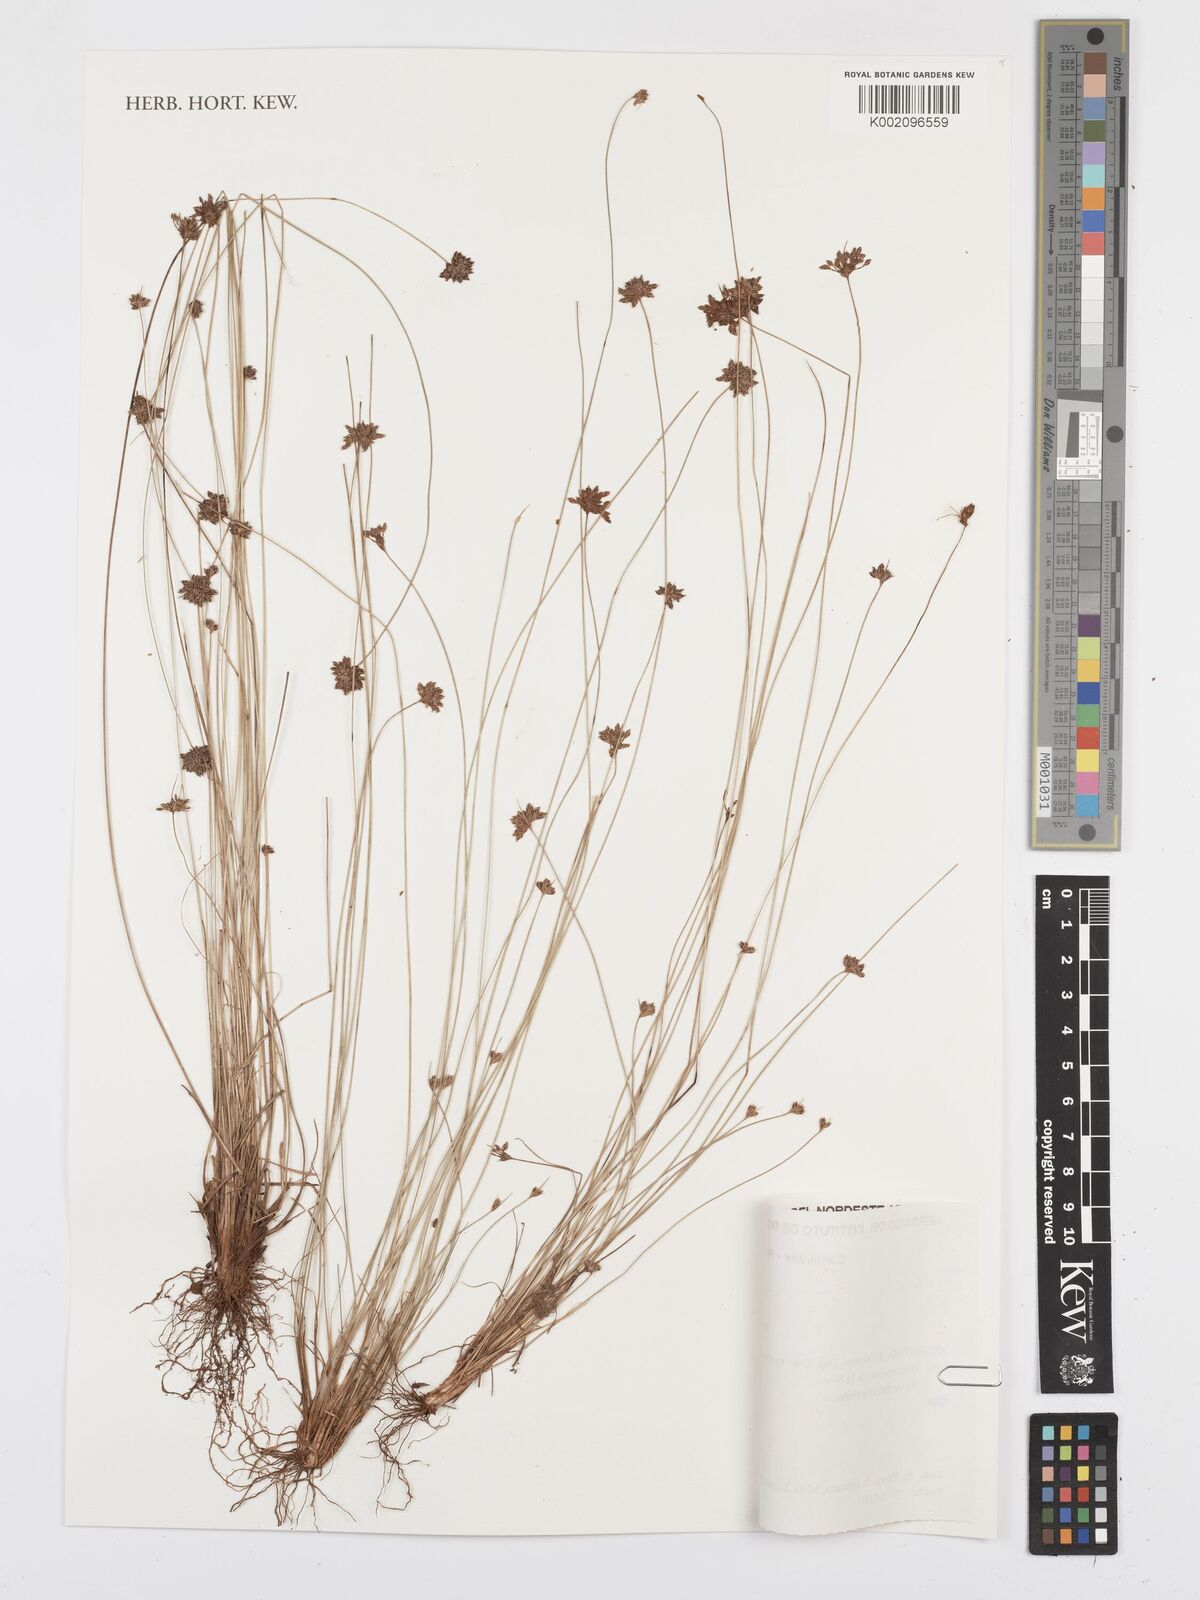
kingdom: Plantae
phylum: Tracheophyta
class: Liliopsida
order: Poales
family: Cyperaceae
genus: Bulbostylis
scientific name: Bulbostylis juncoides
